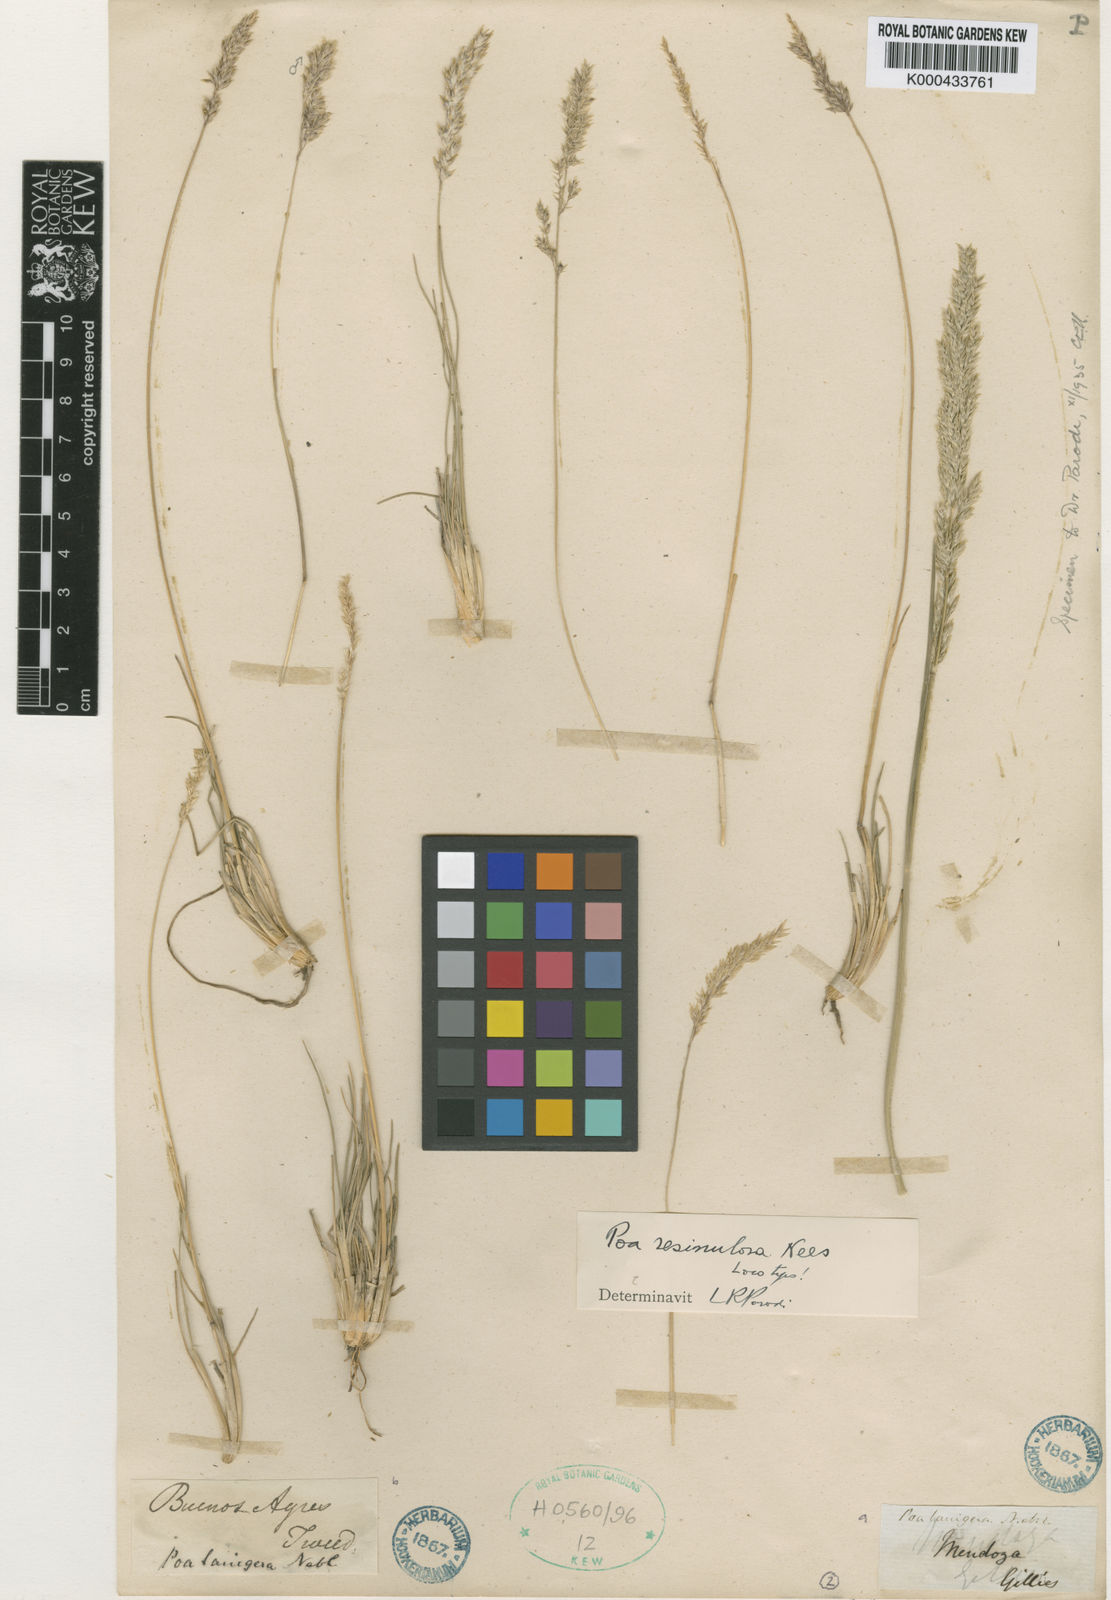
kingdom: Plantae
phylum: Tracheophyta
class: Liliopsida
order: Poales
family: Poaceae
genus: Poa
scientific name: Poa resinulosa
